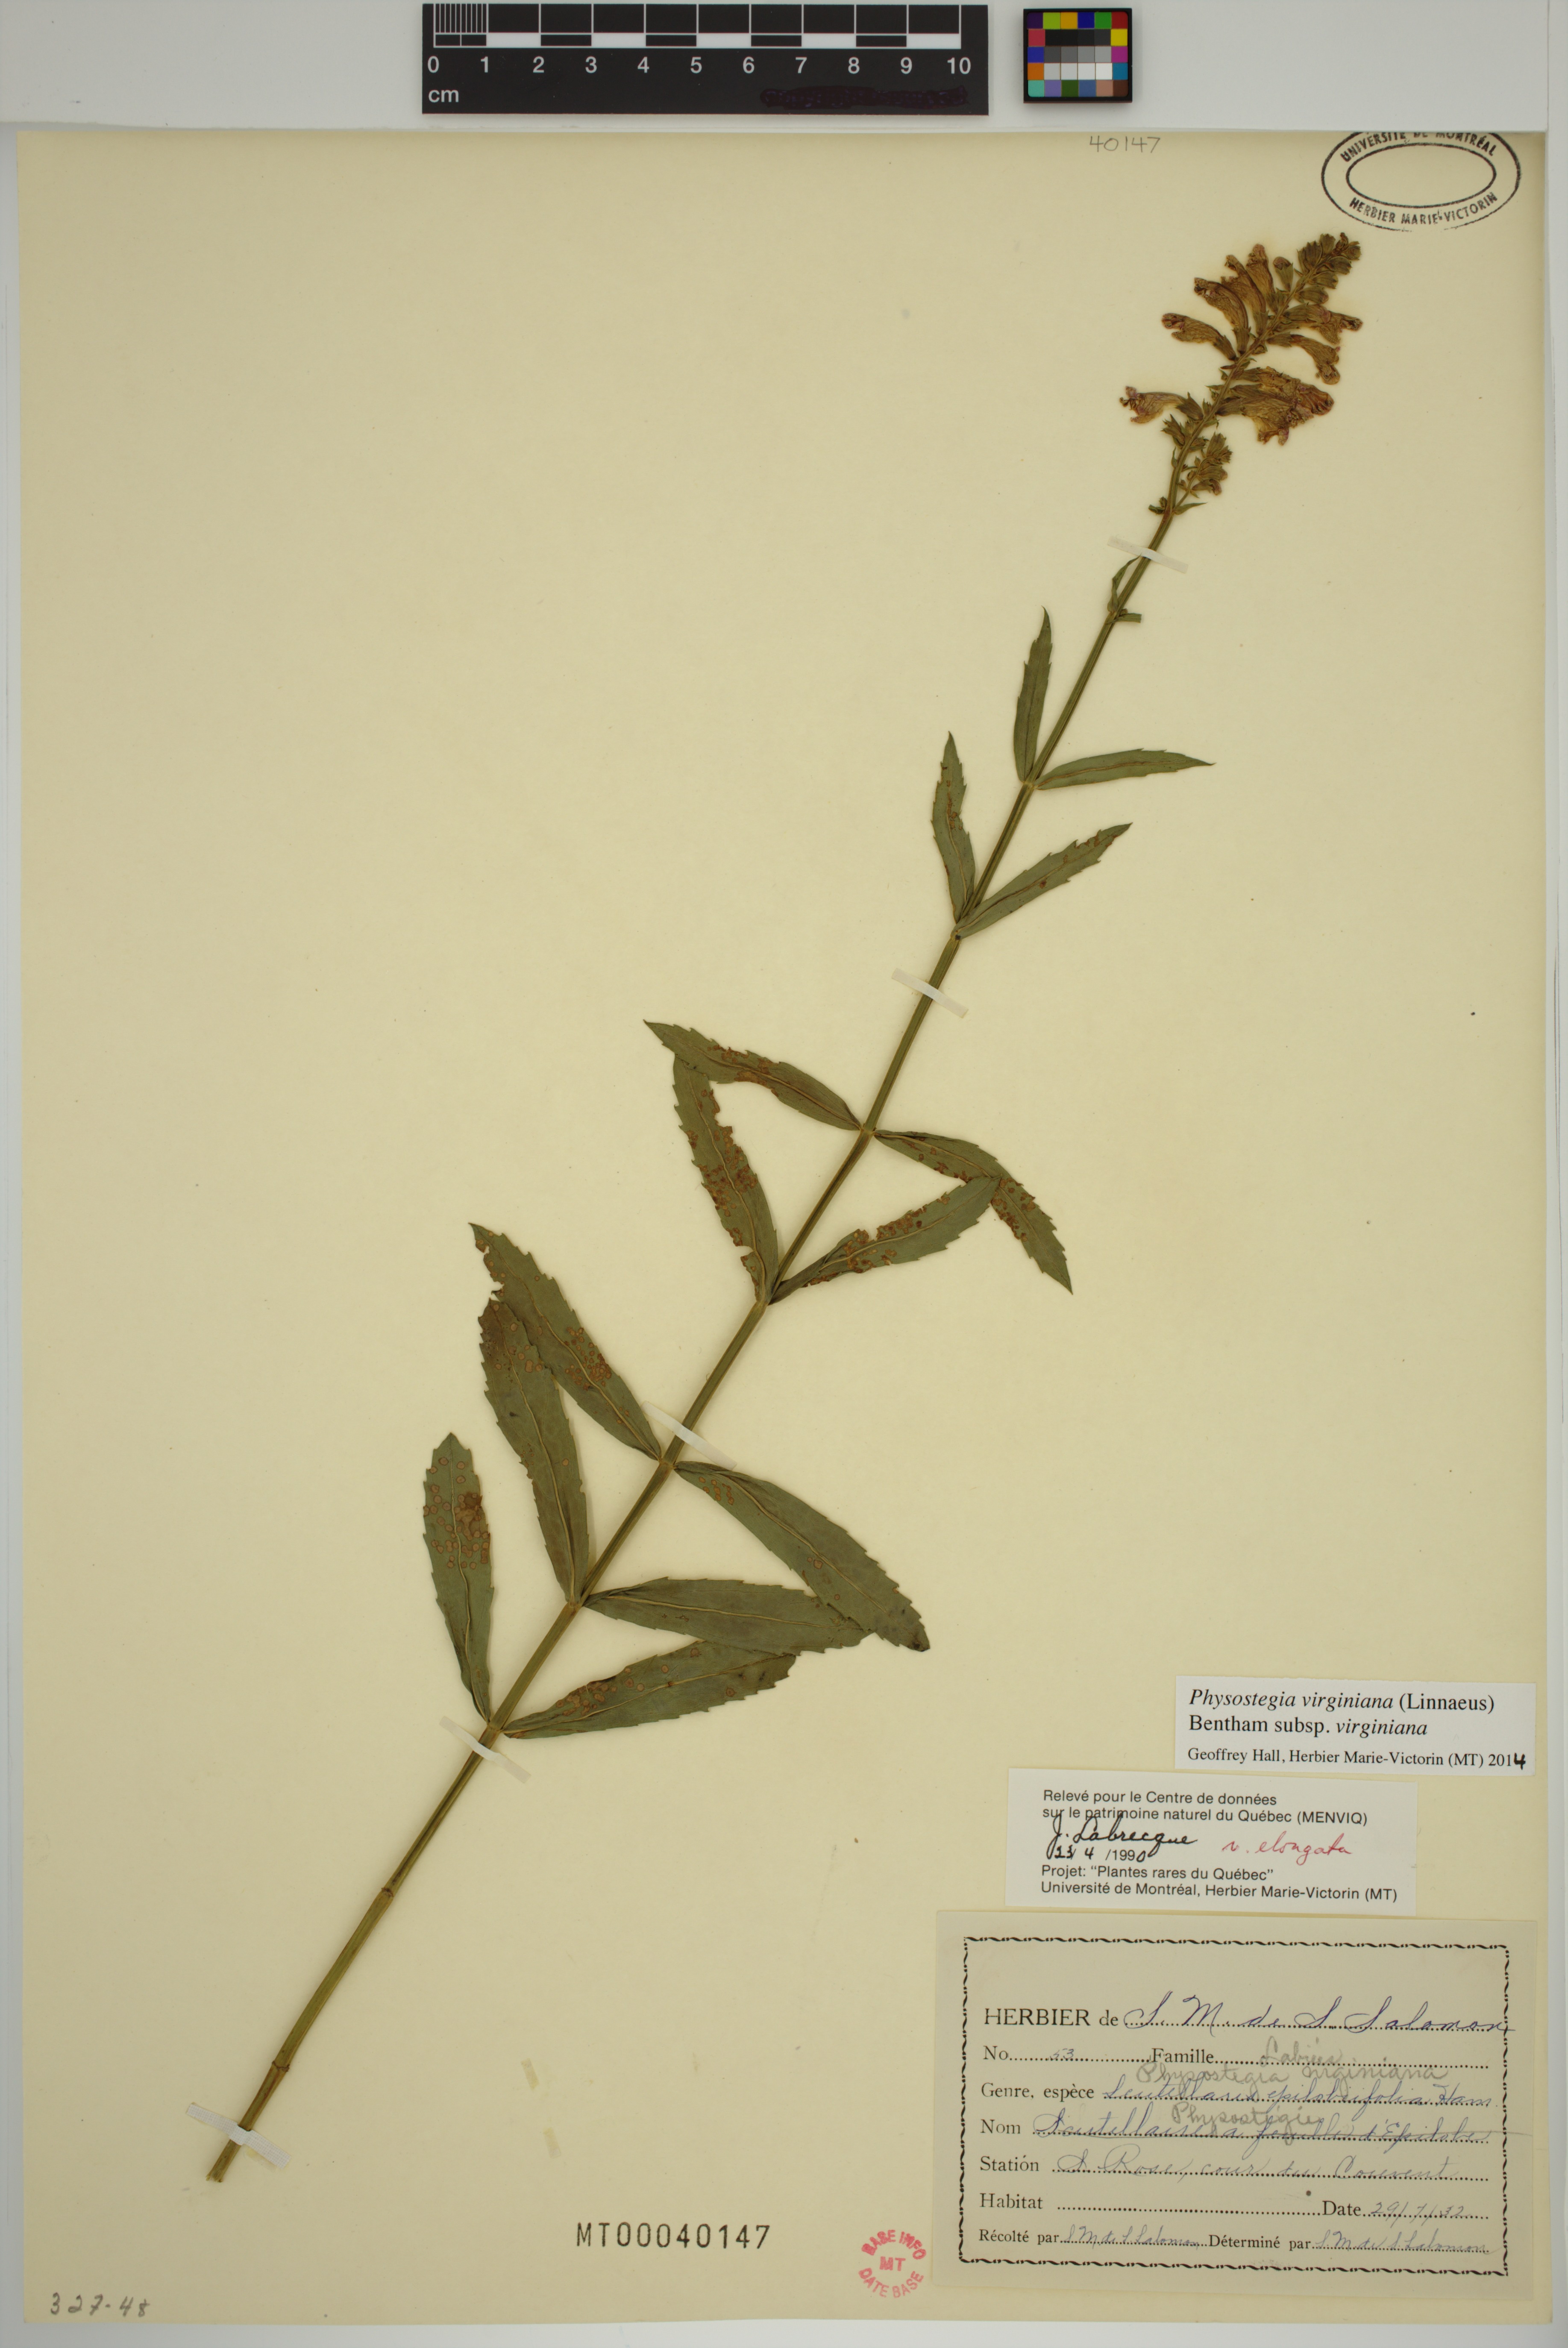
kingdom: Plantae
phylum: Tracheophyta
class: Magnoliopsida
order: Lamiales
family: Lamiaceae
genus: Physostegia
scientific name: Physostegia virginiana
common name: Obedient-plant
